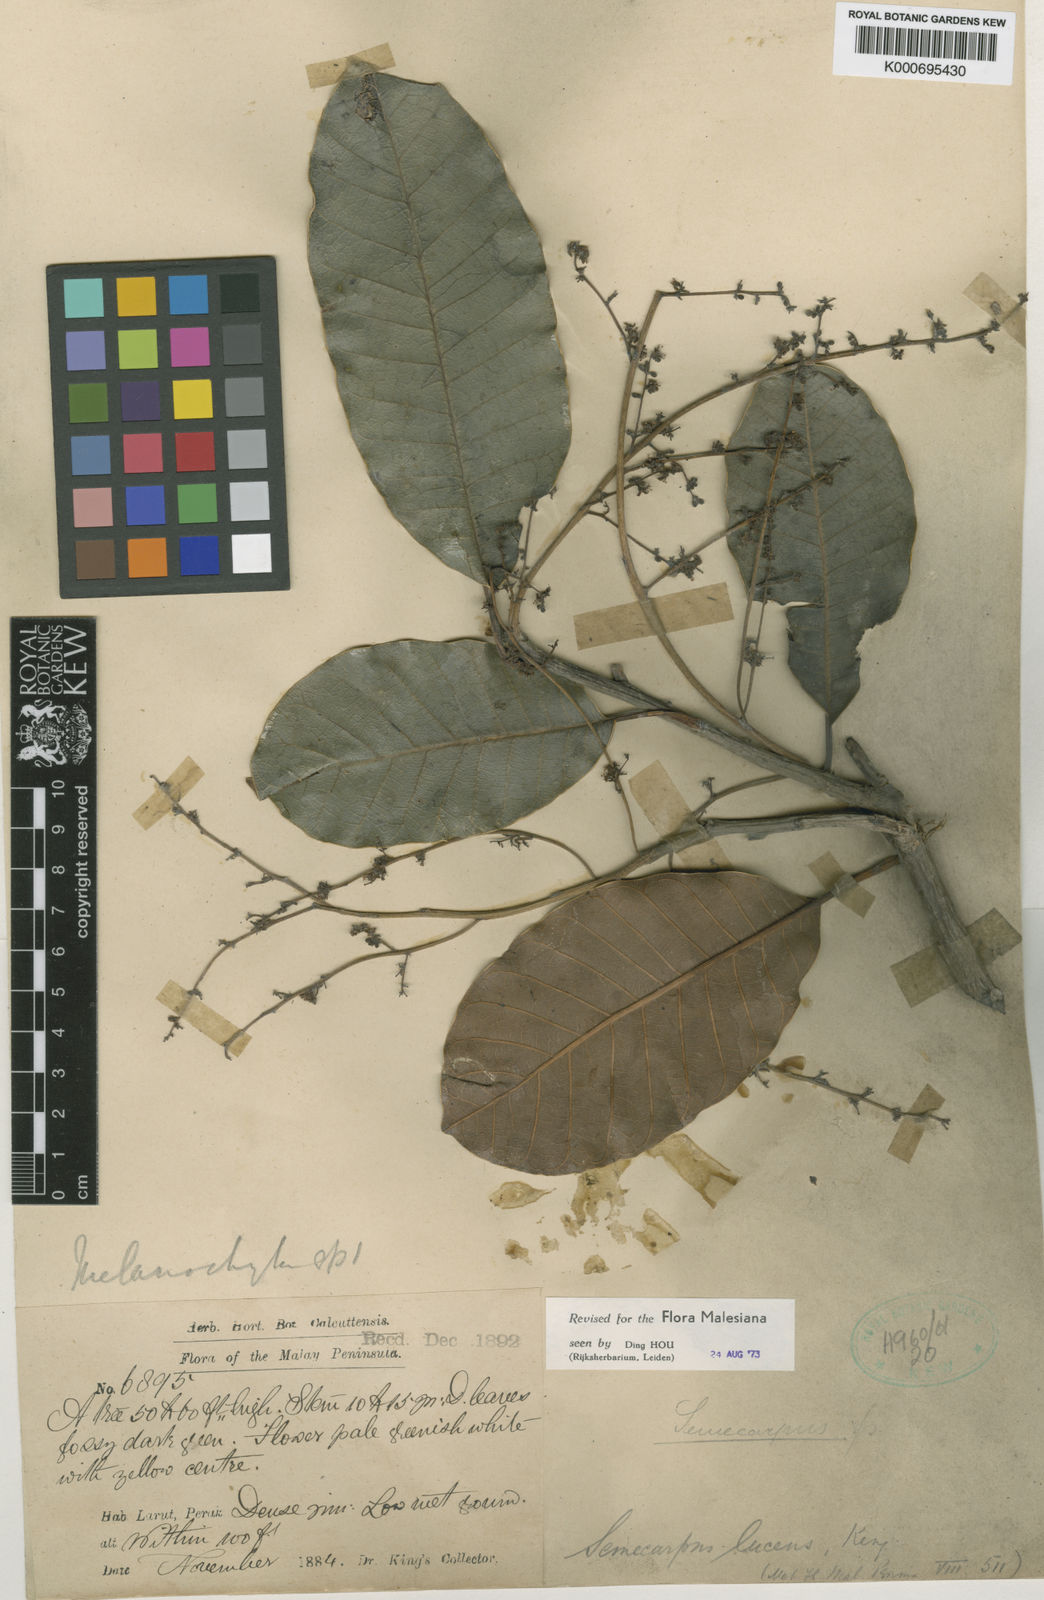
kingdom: Plantae
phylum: Tracheophyta
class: Magnoliopsida
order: Sapindales
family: Anacardiaceae
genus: Semecarpus
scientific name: Semecarpus lucens
